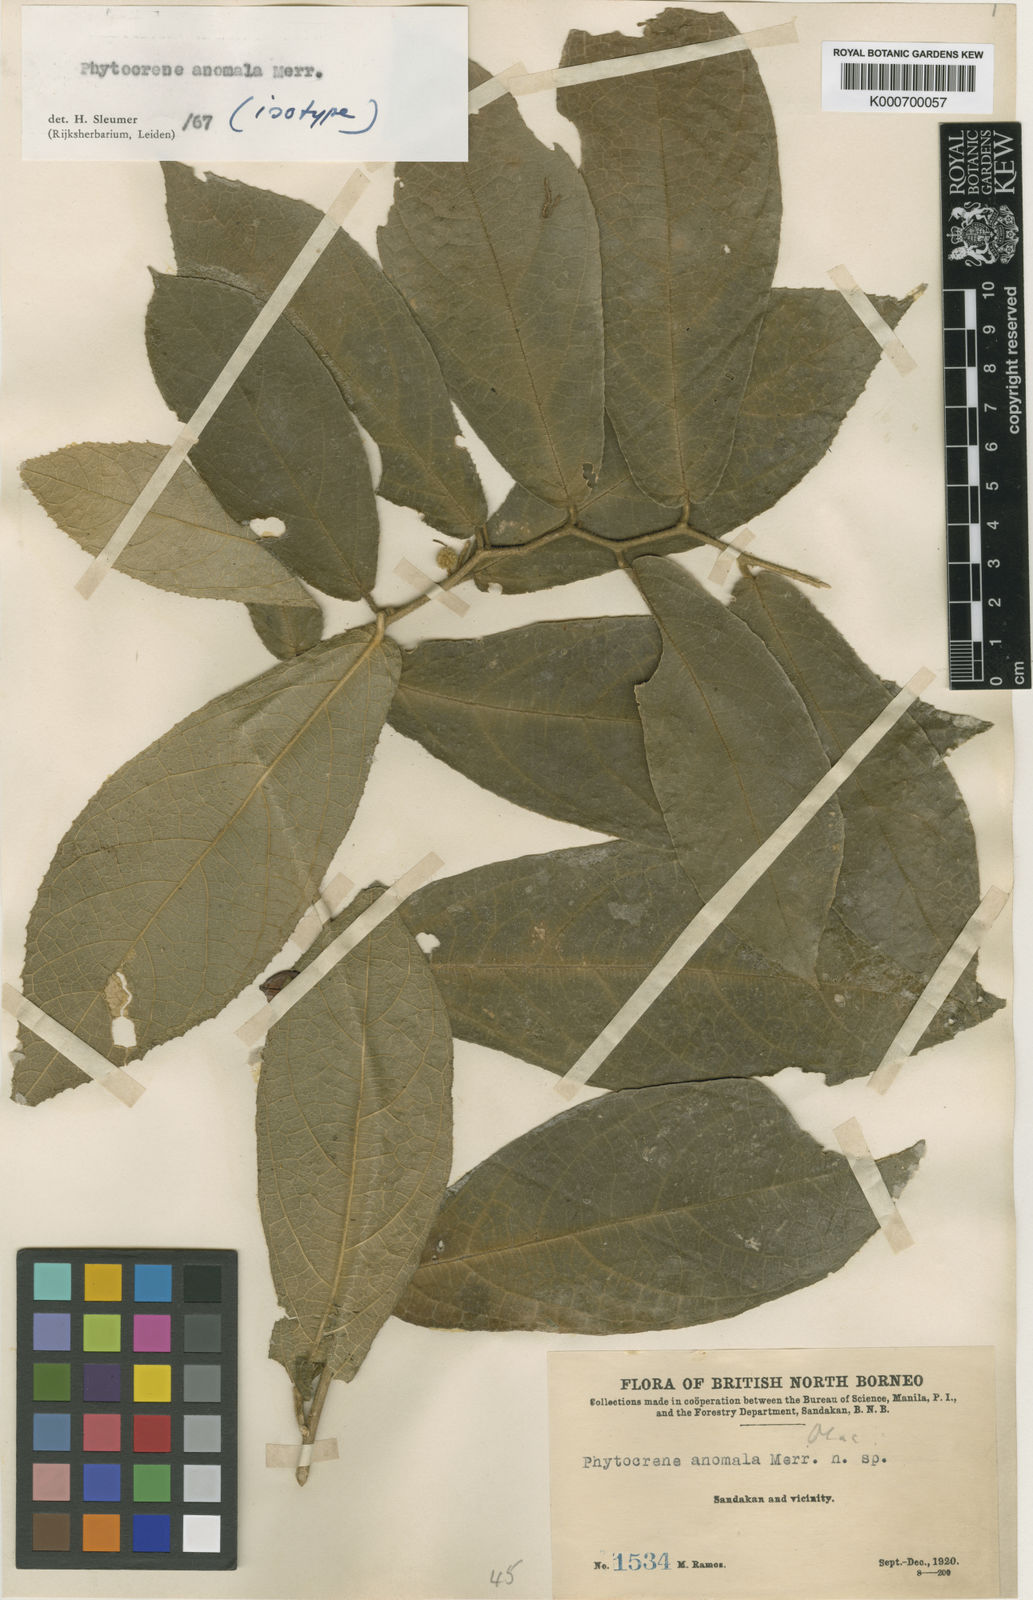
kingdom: Plantae
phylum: Tracheophyta
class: Magnoliopsida
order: Icacinales
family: Icacinaceae
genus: Phytocrene
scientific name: Phytocrene anomala
